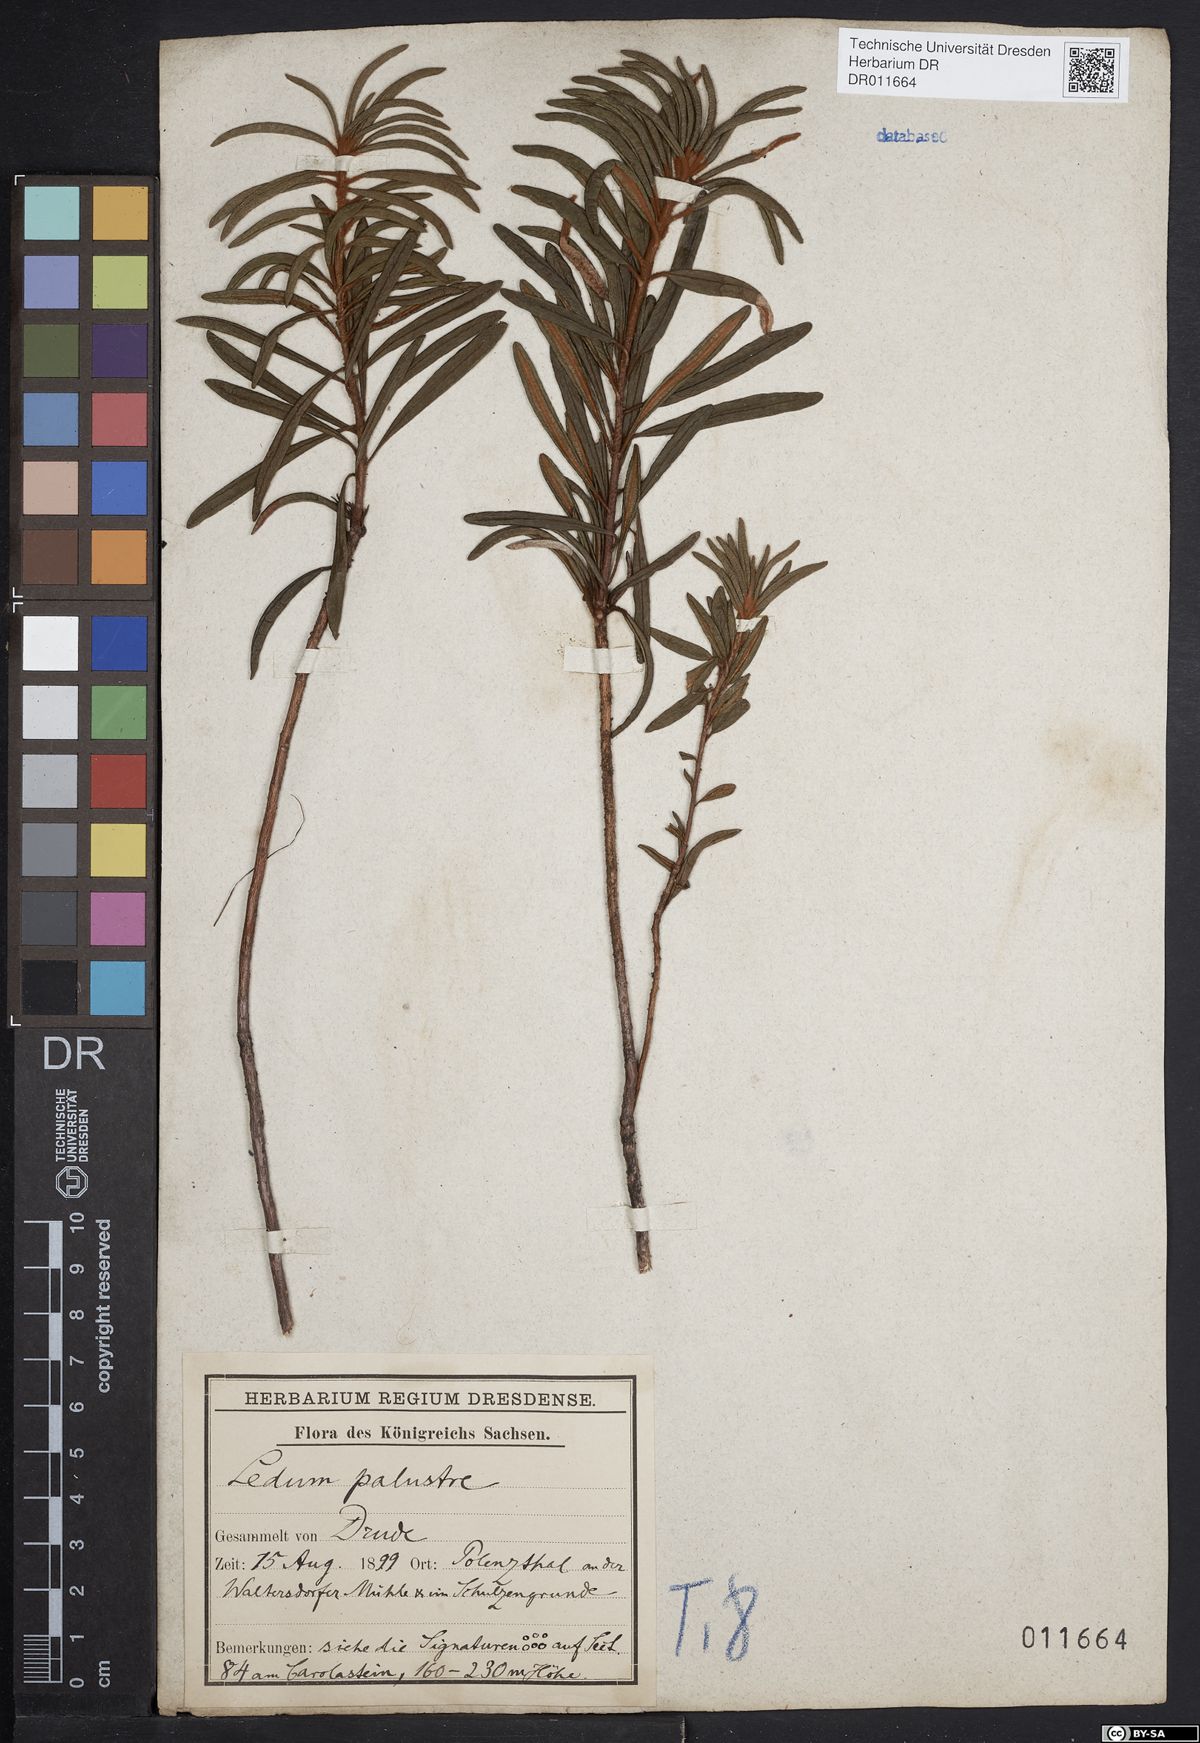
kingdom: Plantae
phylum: Tracheophyta
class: Magnoliopsida
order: Ericales
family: Ericaceae
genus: Rhododendron
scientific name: Rhododendron tomentosum
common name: Marsh labrador tea
